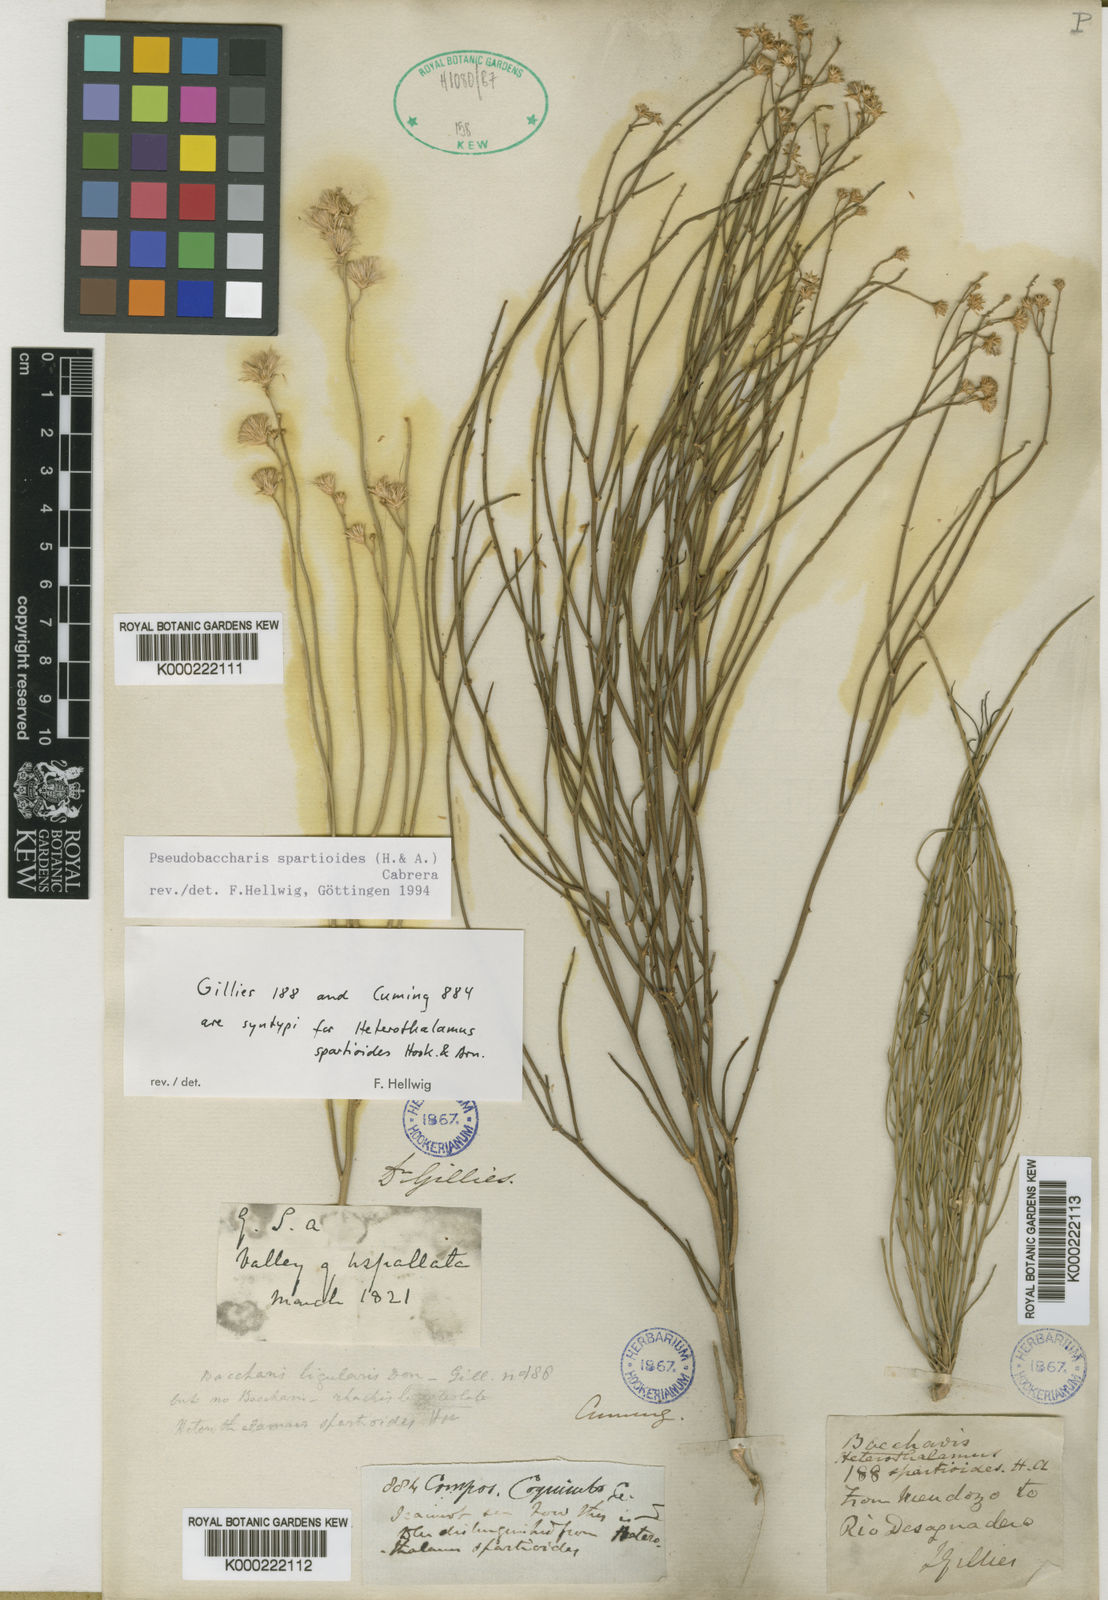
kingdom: Plantae
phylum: Tracheophyta
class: Magnoliopsida
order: Asterales
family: Asteraceae
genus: Pseudobaccharis
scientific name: Pseudobaccharis spartioides
